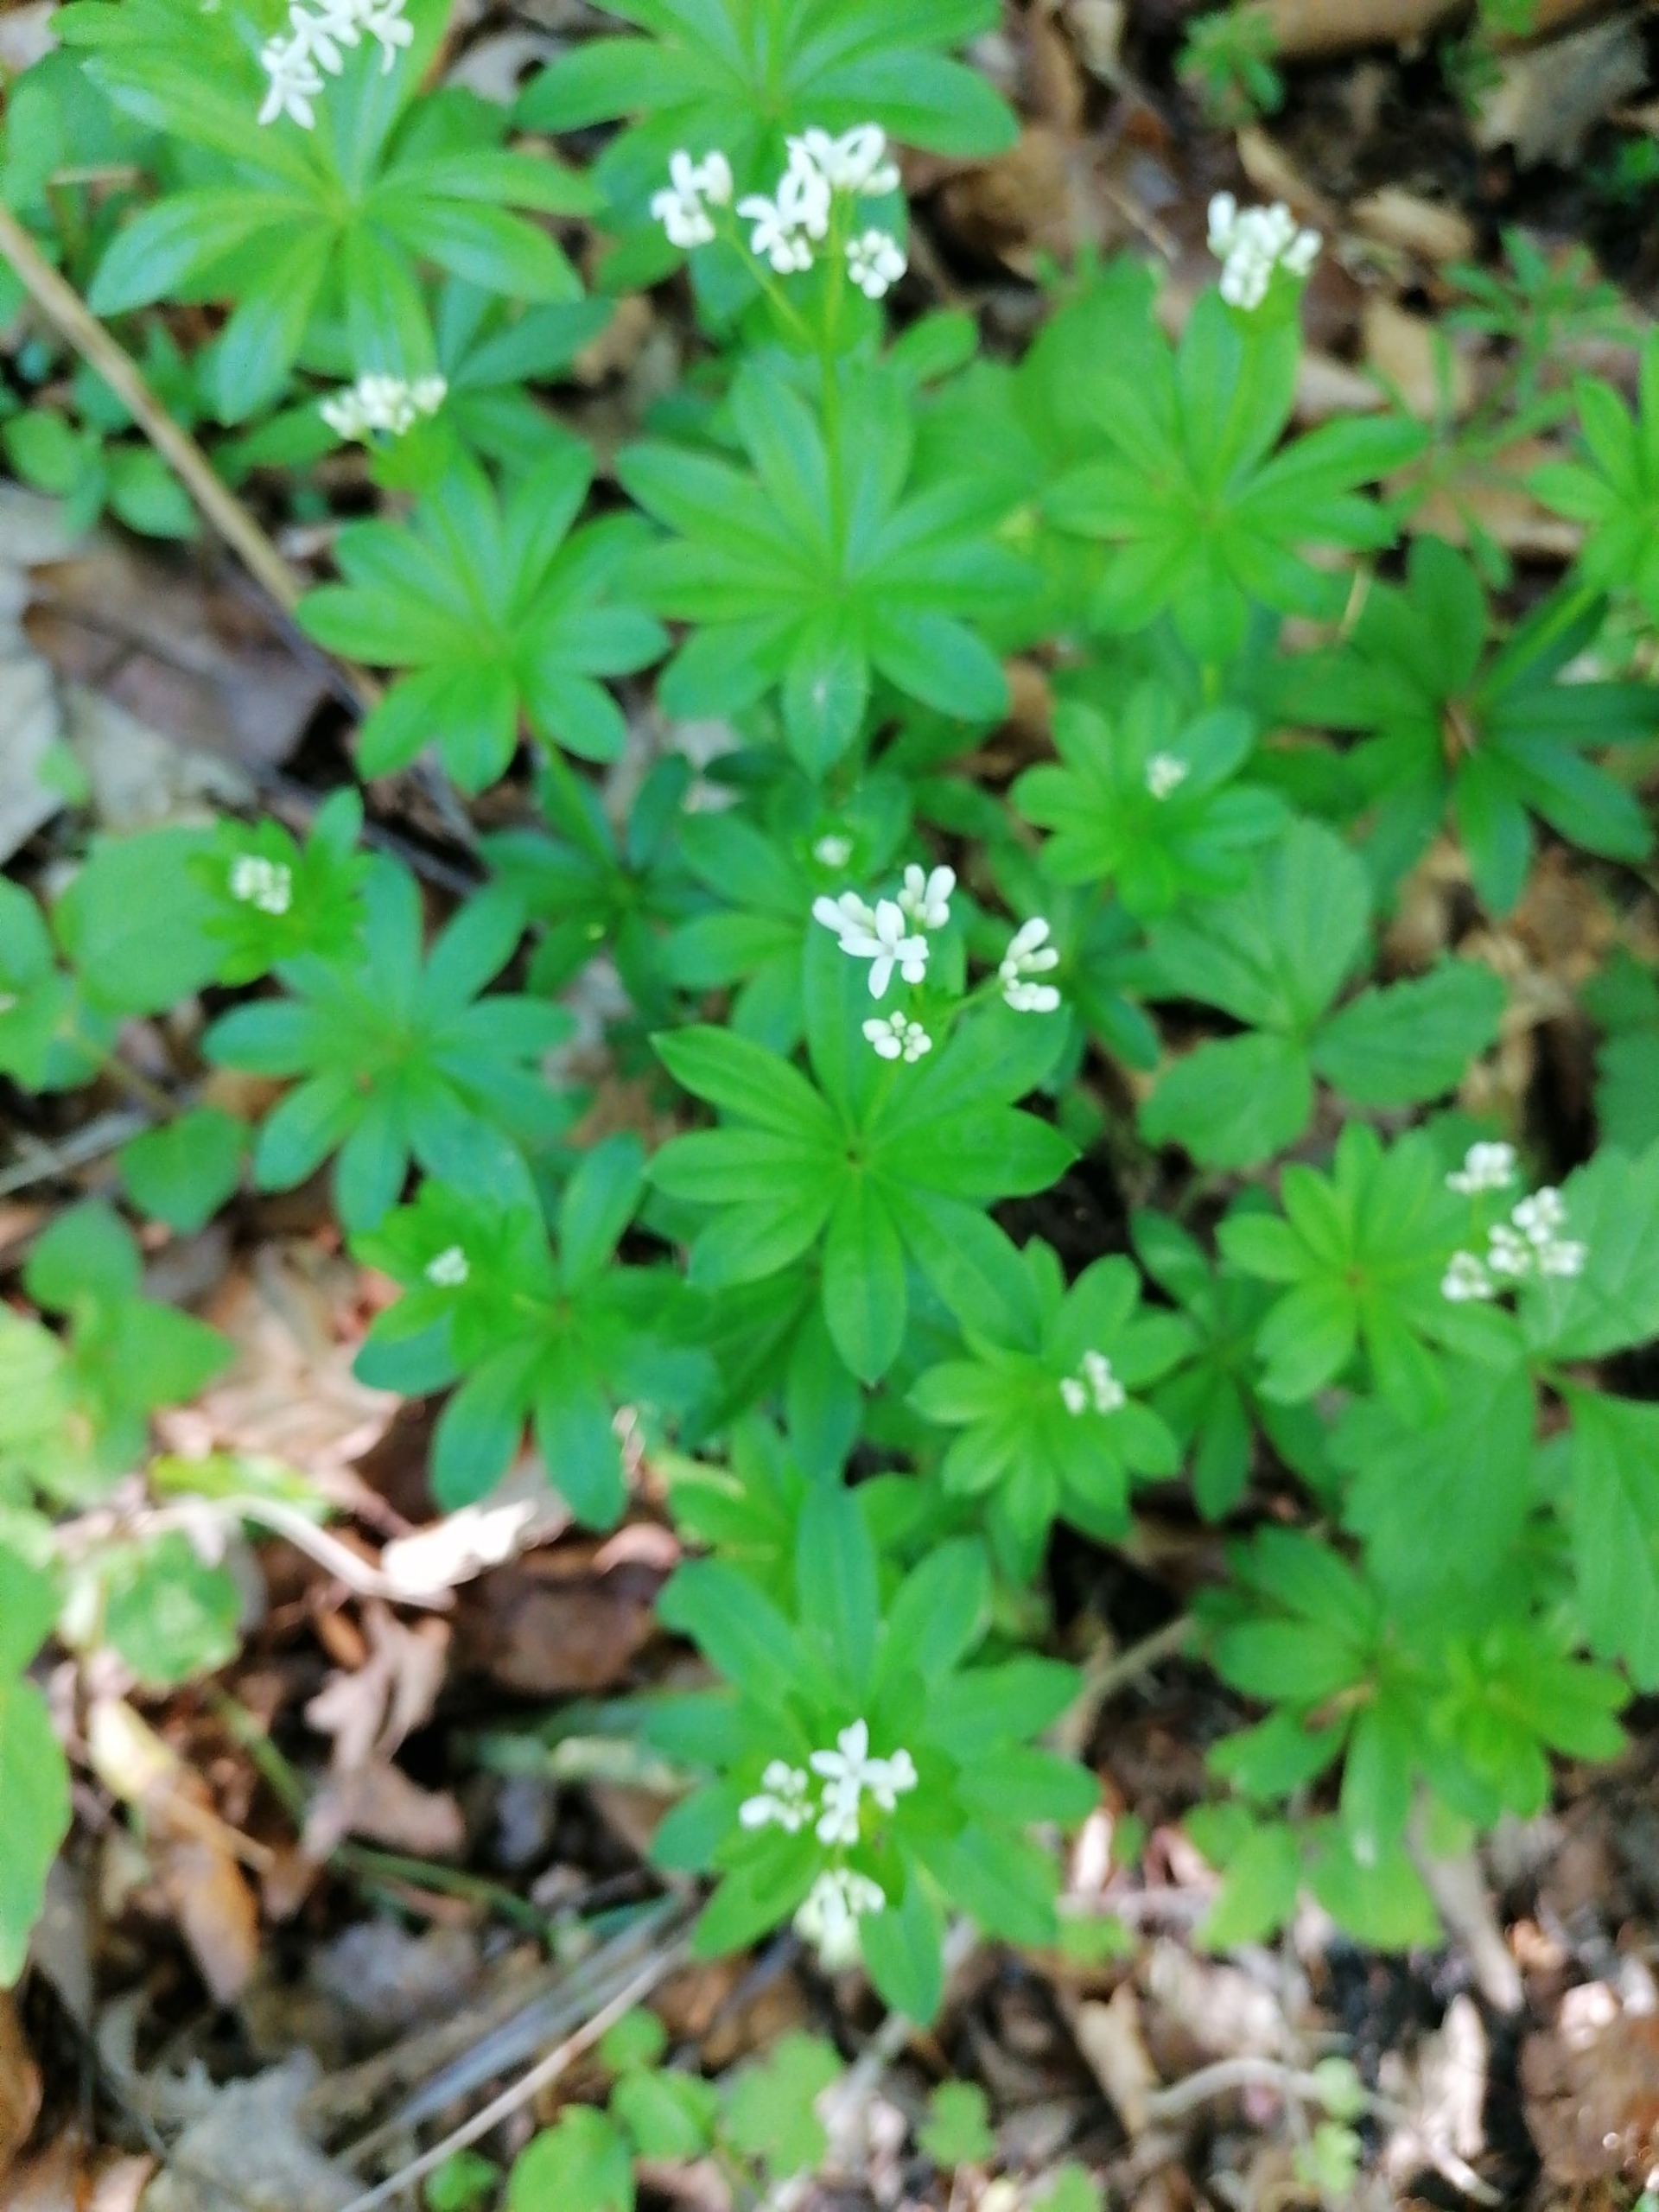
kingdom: Plantae
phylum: Tracheophyta
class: Magnoliopsida
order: Gentianales
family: Rubiaceae
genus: Galium
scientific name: Galium odoratum
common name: Skovmærke
